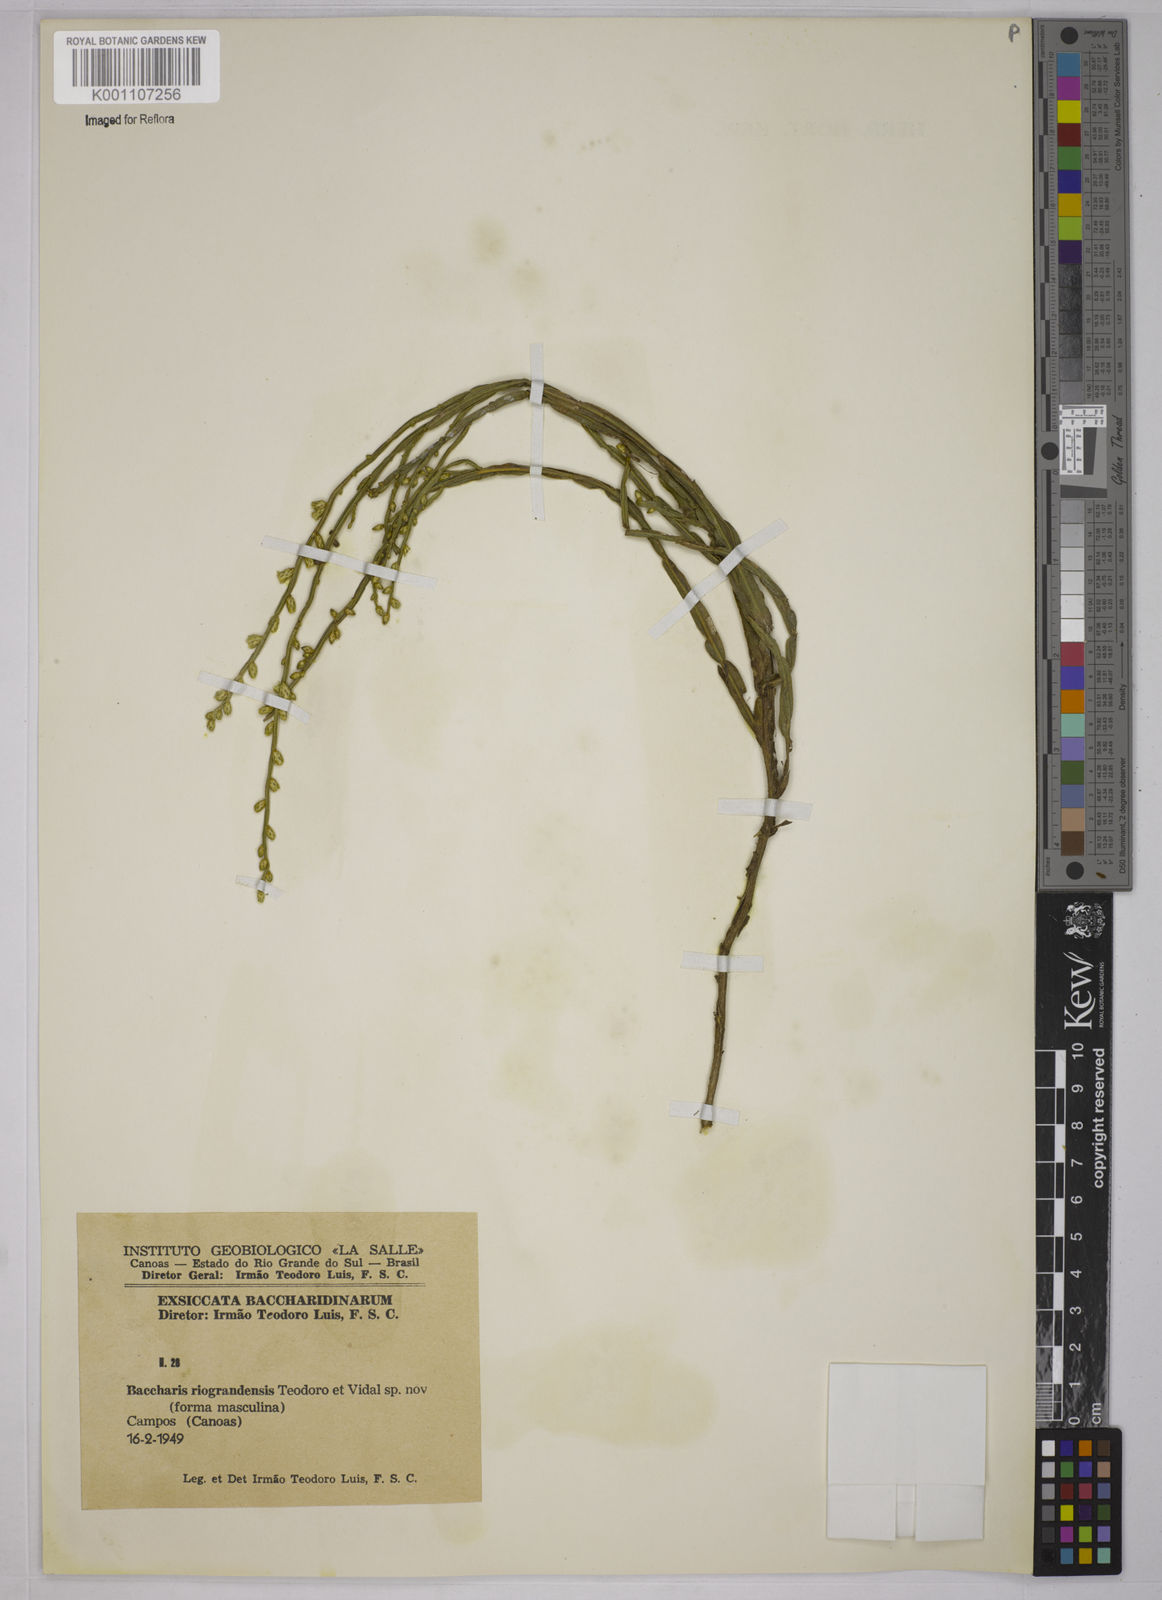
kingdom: Plantae
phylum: Tracheophyta
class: Magnoliopsida
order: Asterales
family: Asteraceae
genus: Baccharis
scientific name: Baccharis riograndensis
